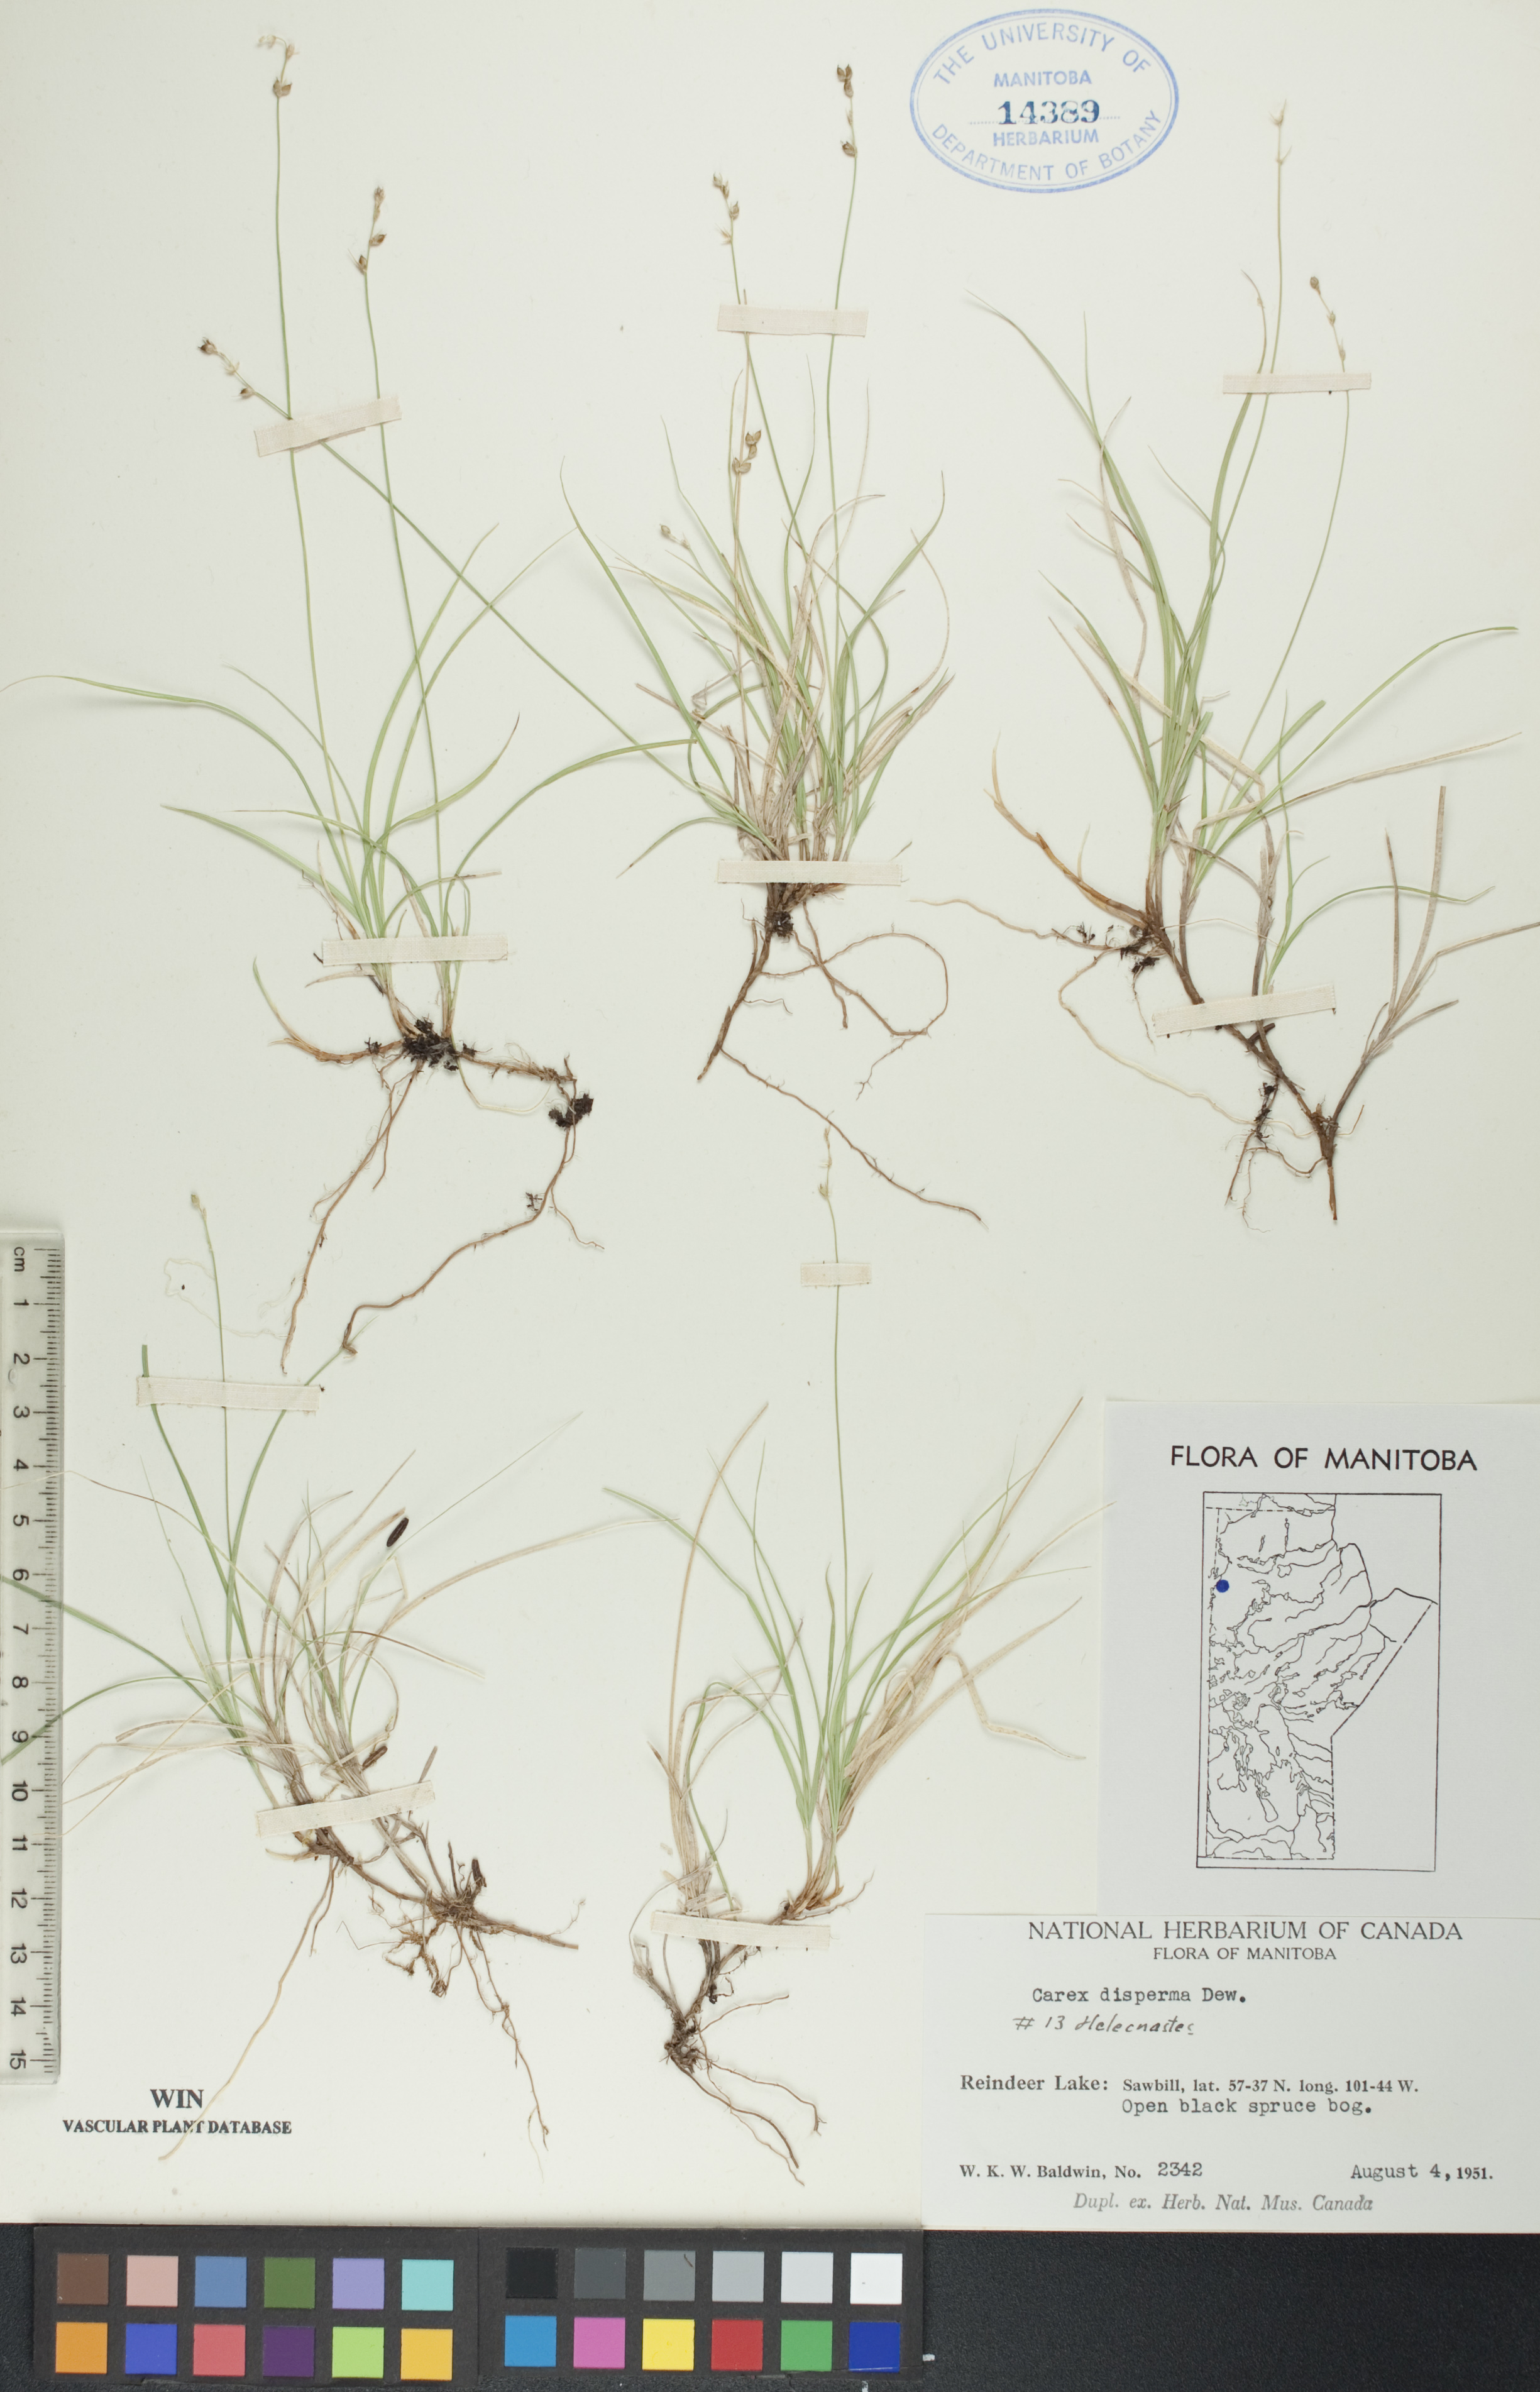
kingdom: Plantae
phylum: Tracheophyta
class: Liliopsida
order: Poales
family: Cyperaceae
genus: Carex
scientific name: Carex disperma
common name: Short-leaved sedge
